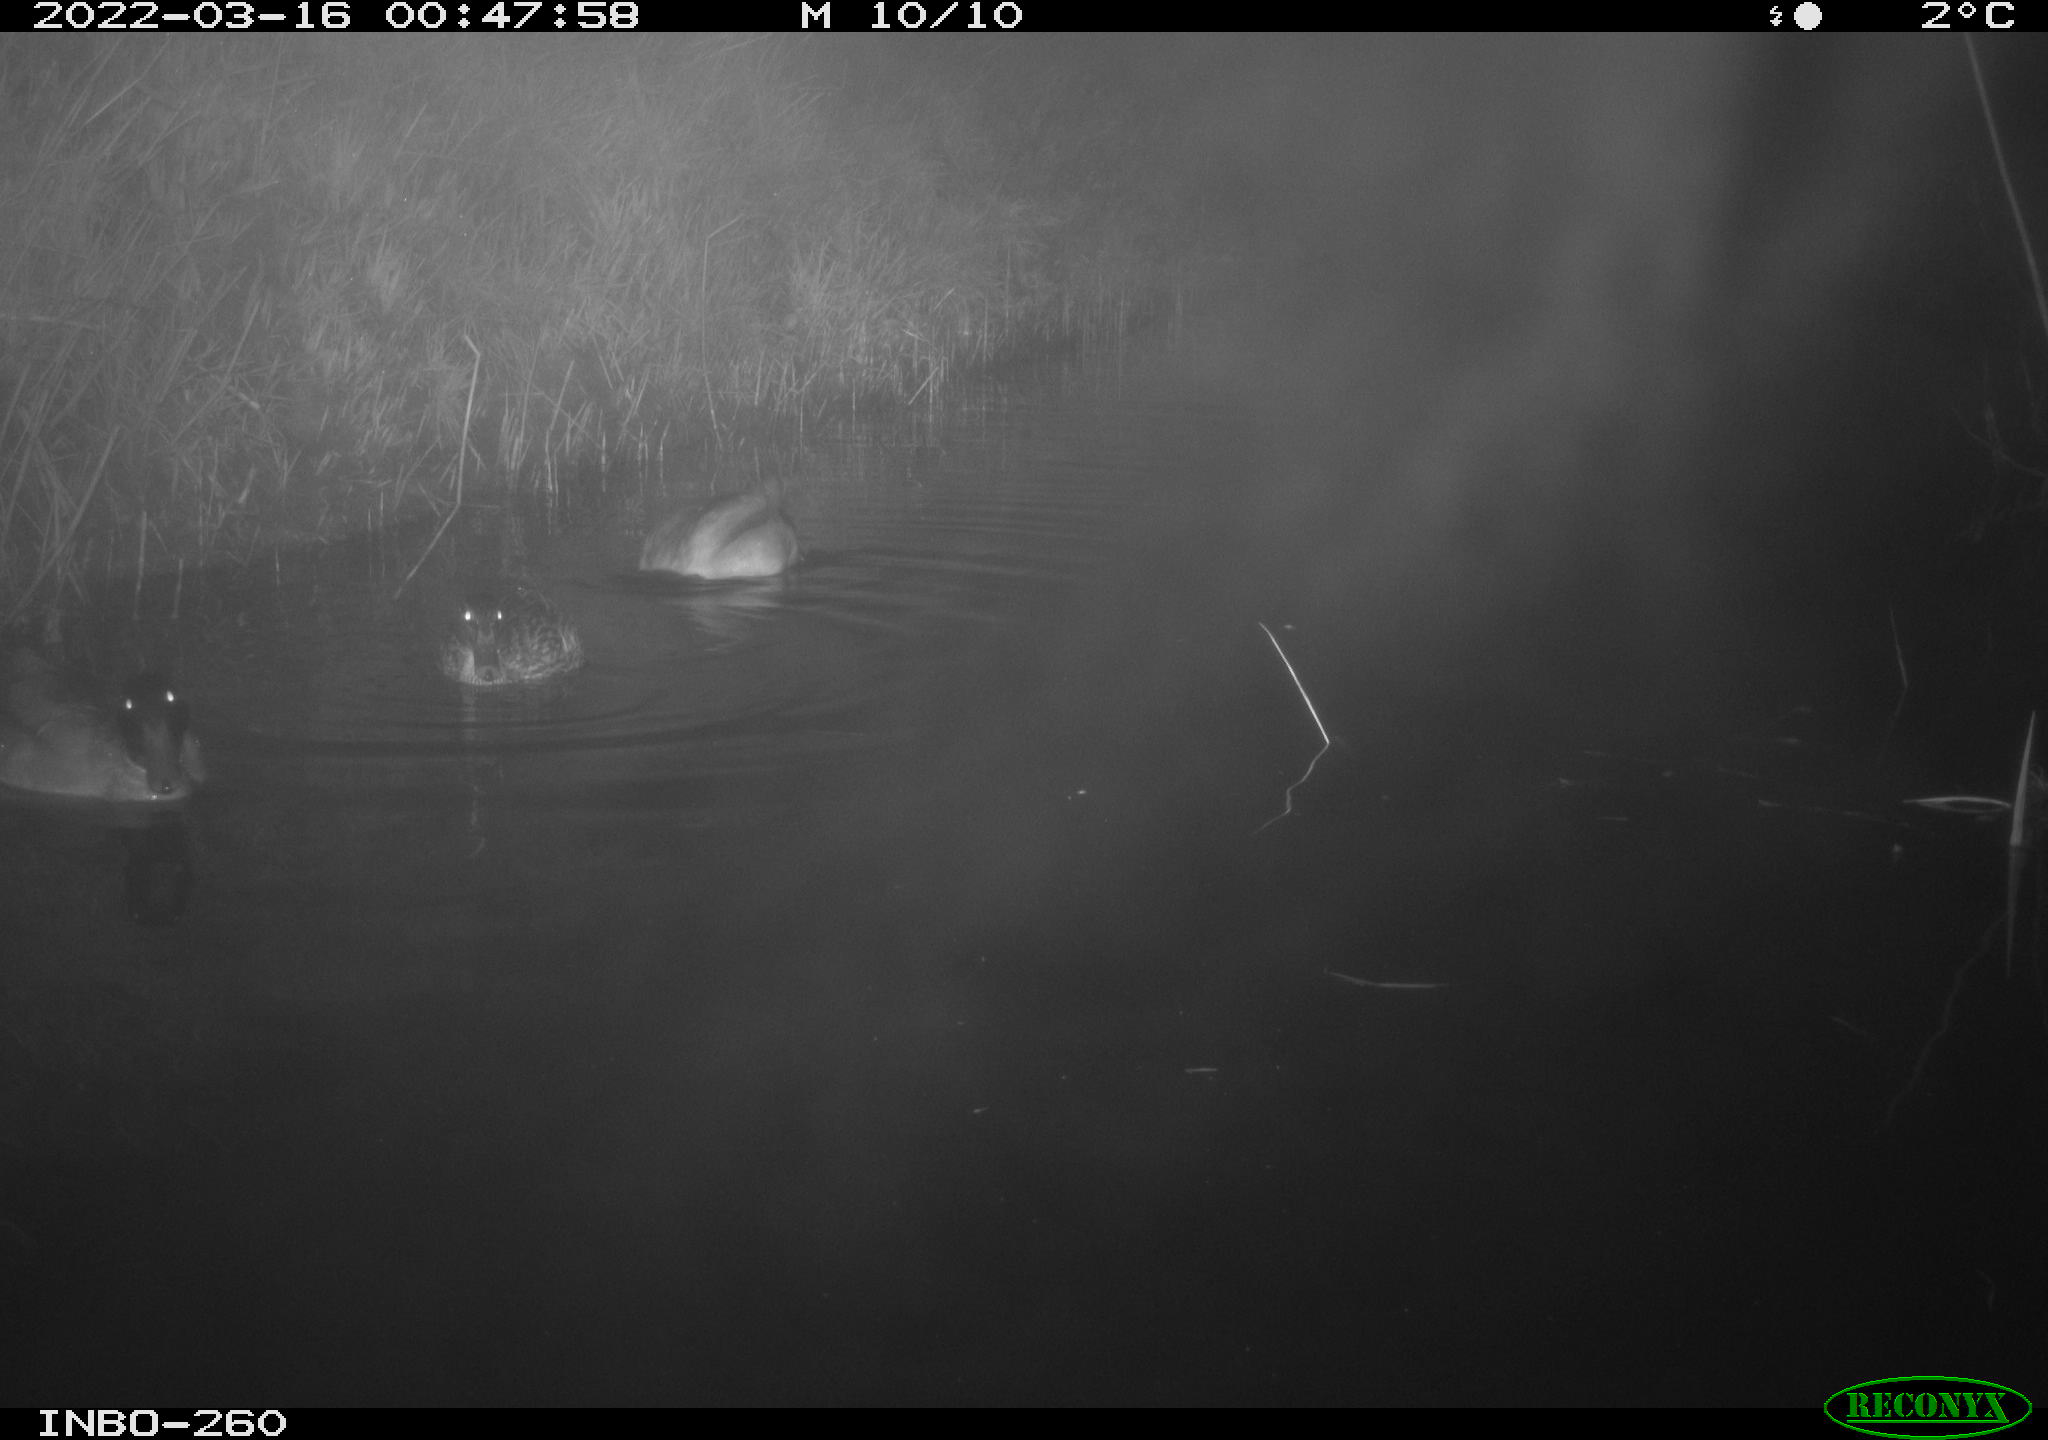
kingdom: Animalia
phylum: Chordata
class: Aves
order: Anseriformes
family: Anatidae
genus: Anas
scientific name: Anas platyrhynchos
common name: Mallard
